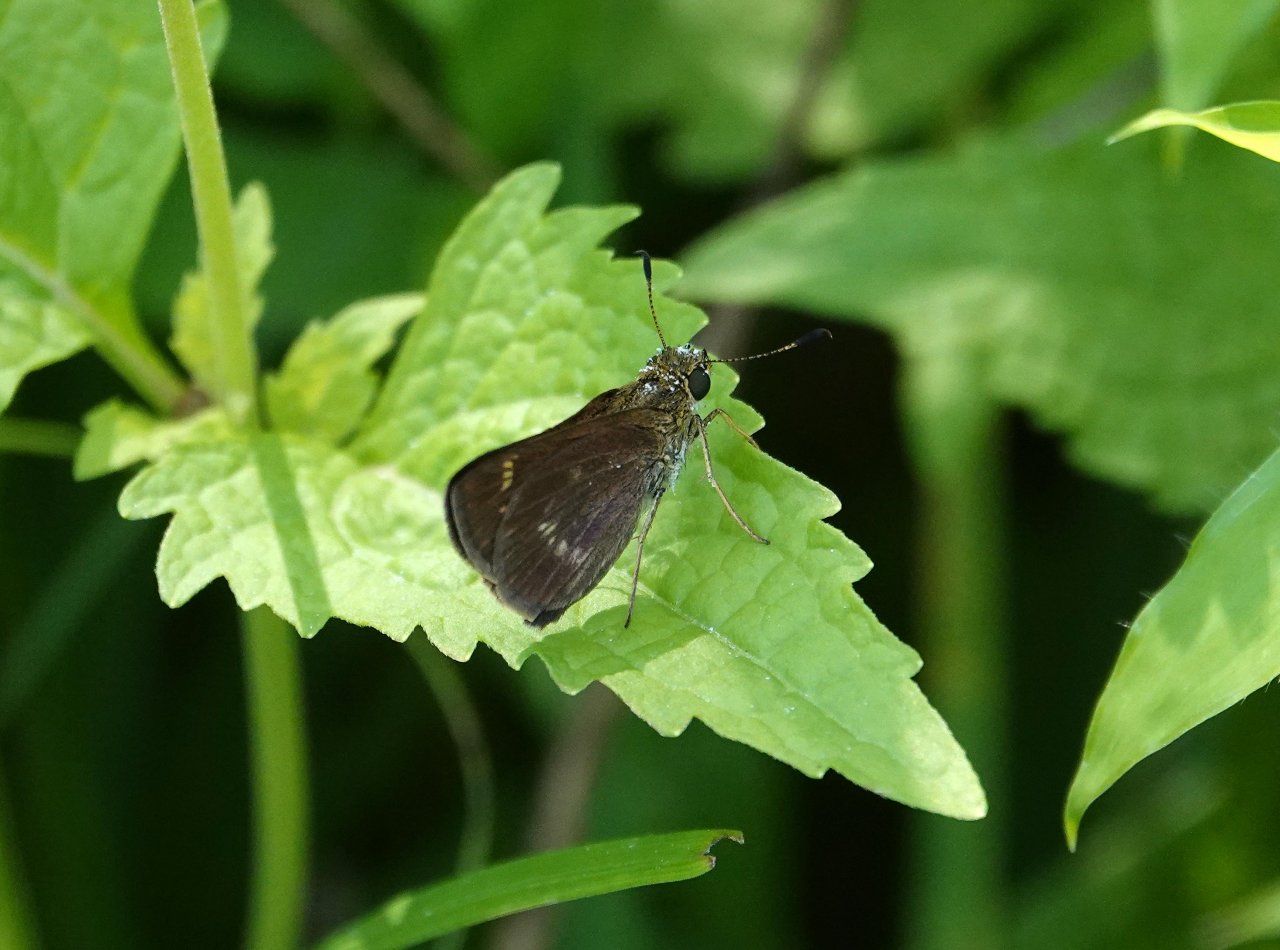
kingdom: Animalia
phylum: Arthropoda
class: Insecta
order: Lepidoptera
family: Hesperiidae
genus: Vernia
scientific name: Vernia verna
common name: Little Glassywing
